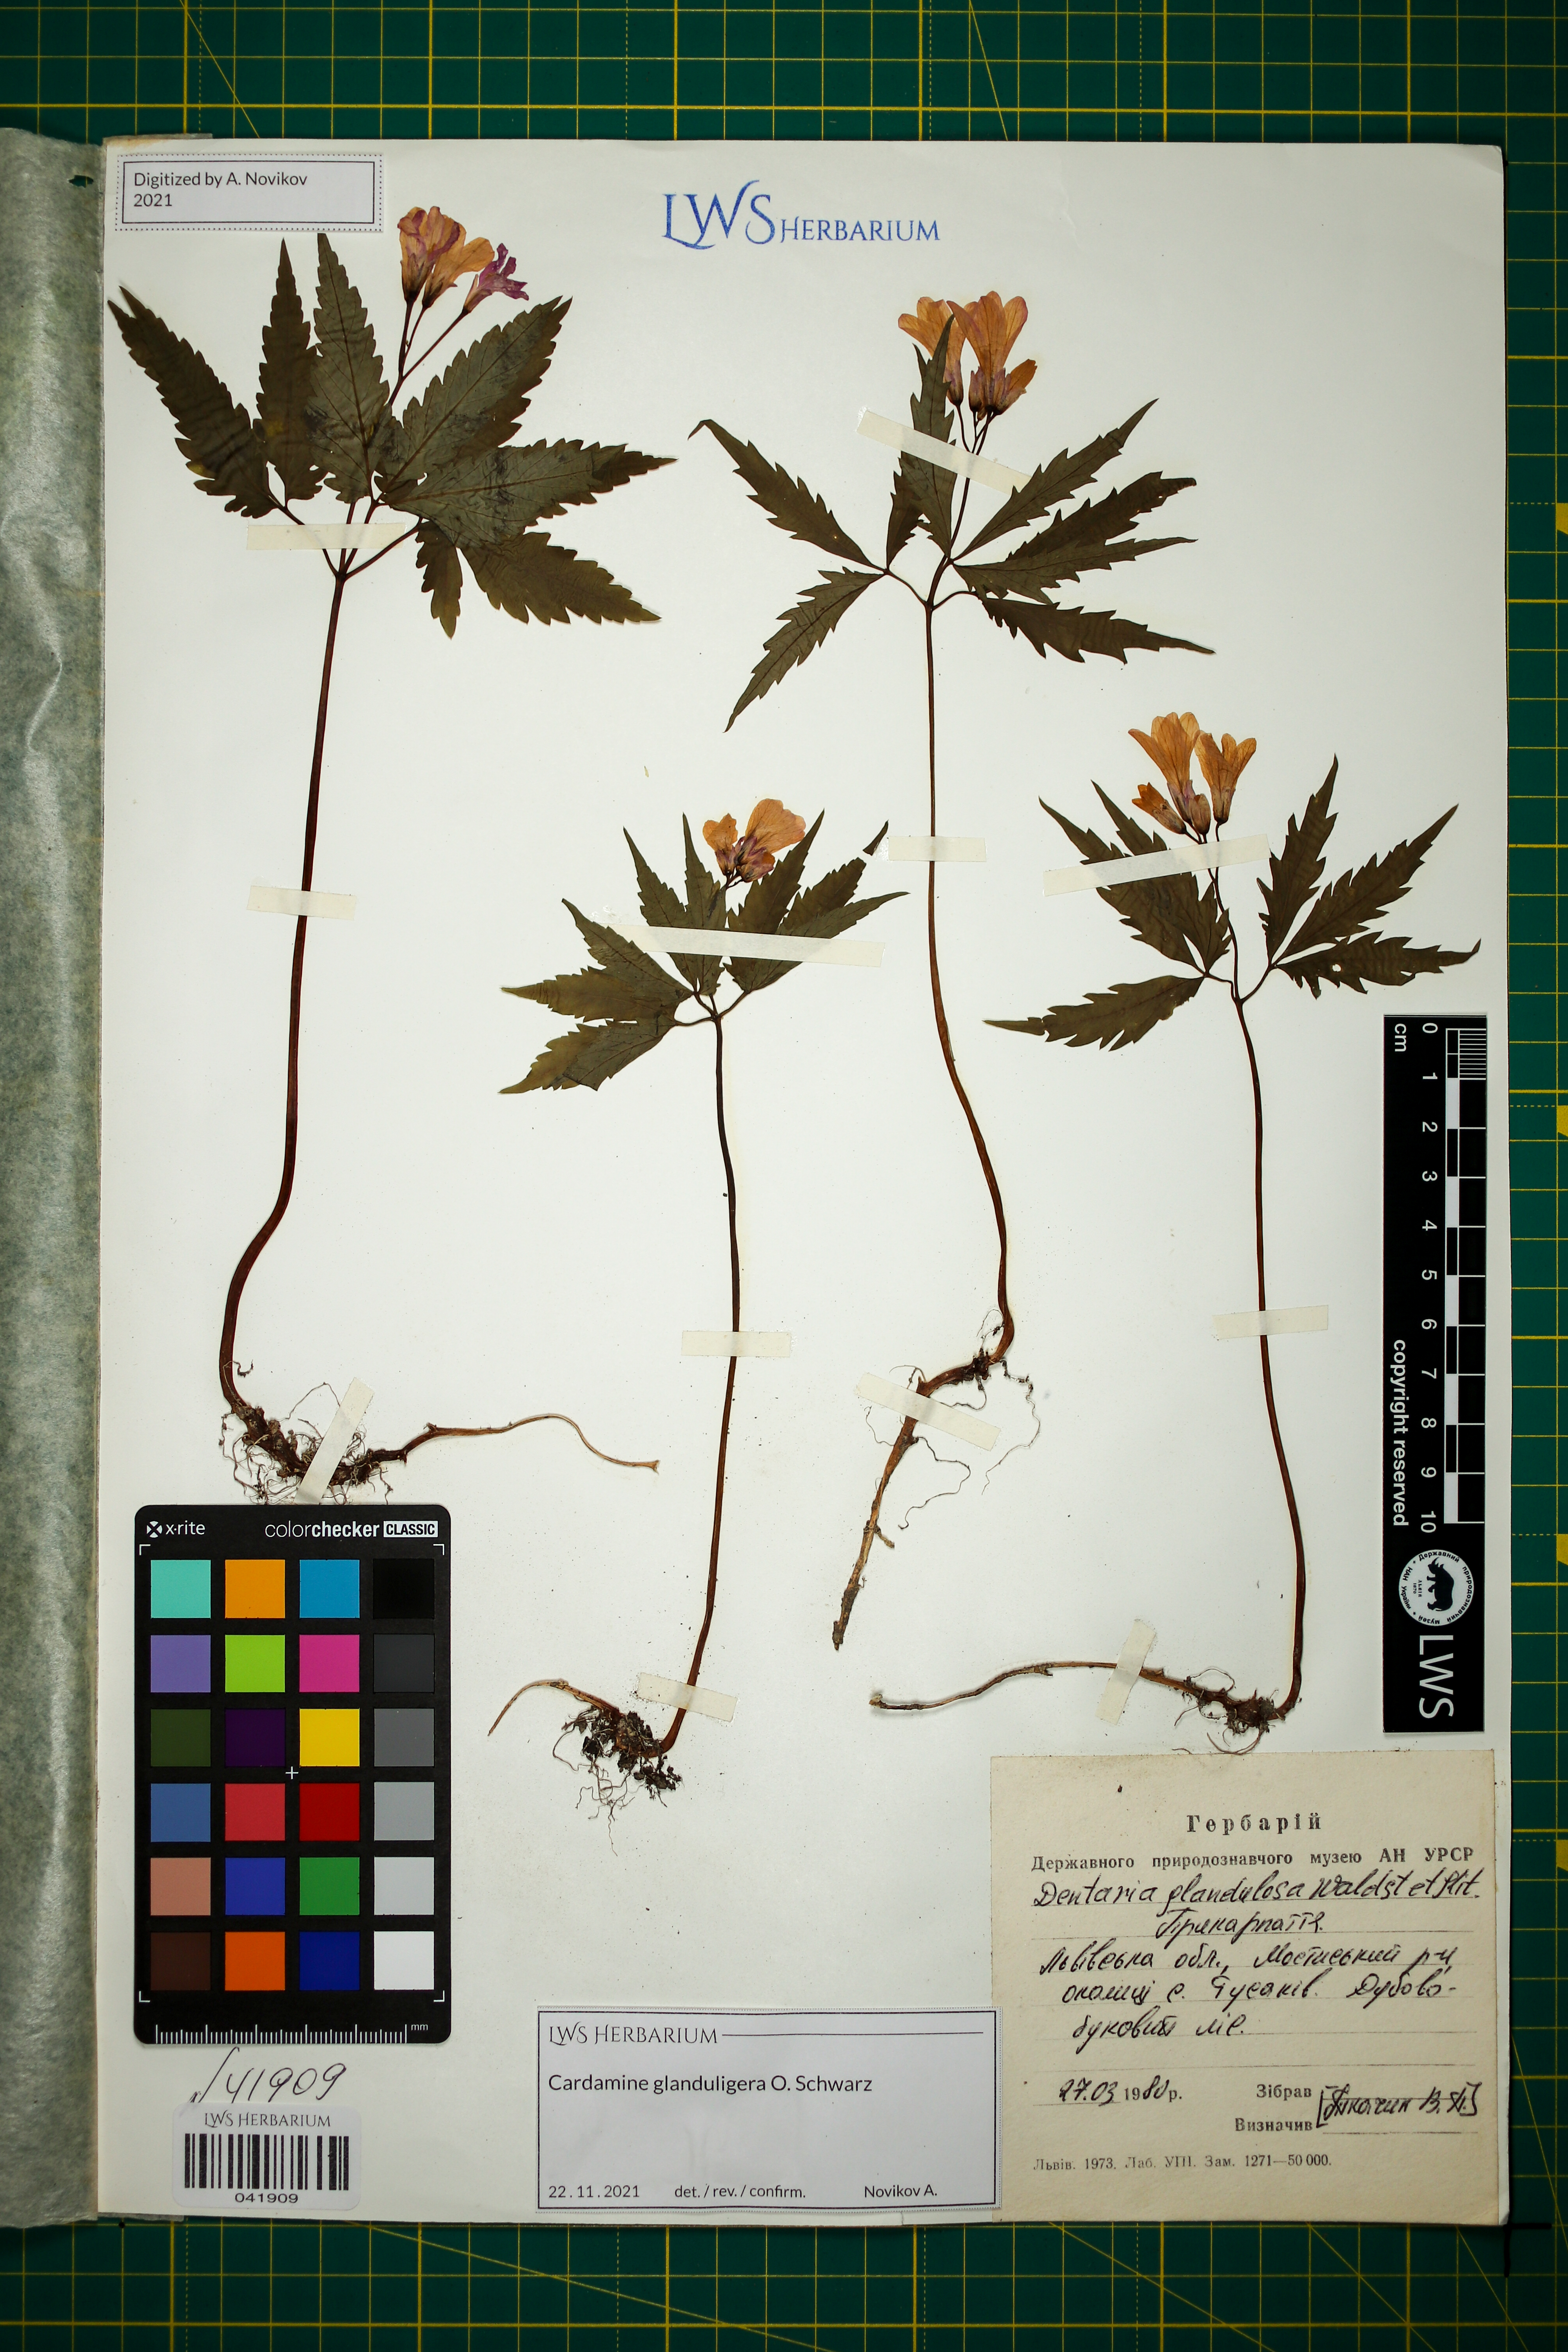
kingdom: Plantae
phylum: Tracheophyta
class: Magnoliopsida
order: Brassicales
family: Brassicaceae
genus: Cardamine
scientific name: Cardamine glanduligera
